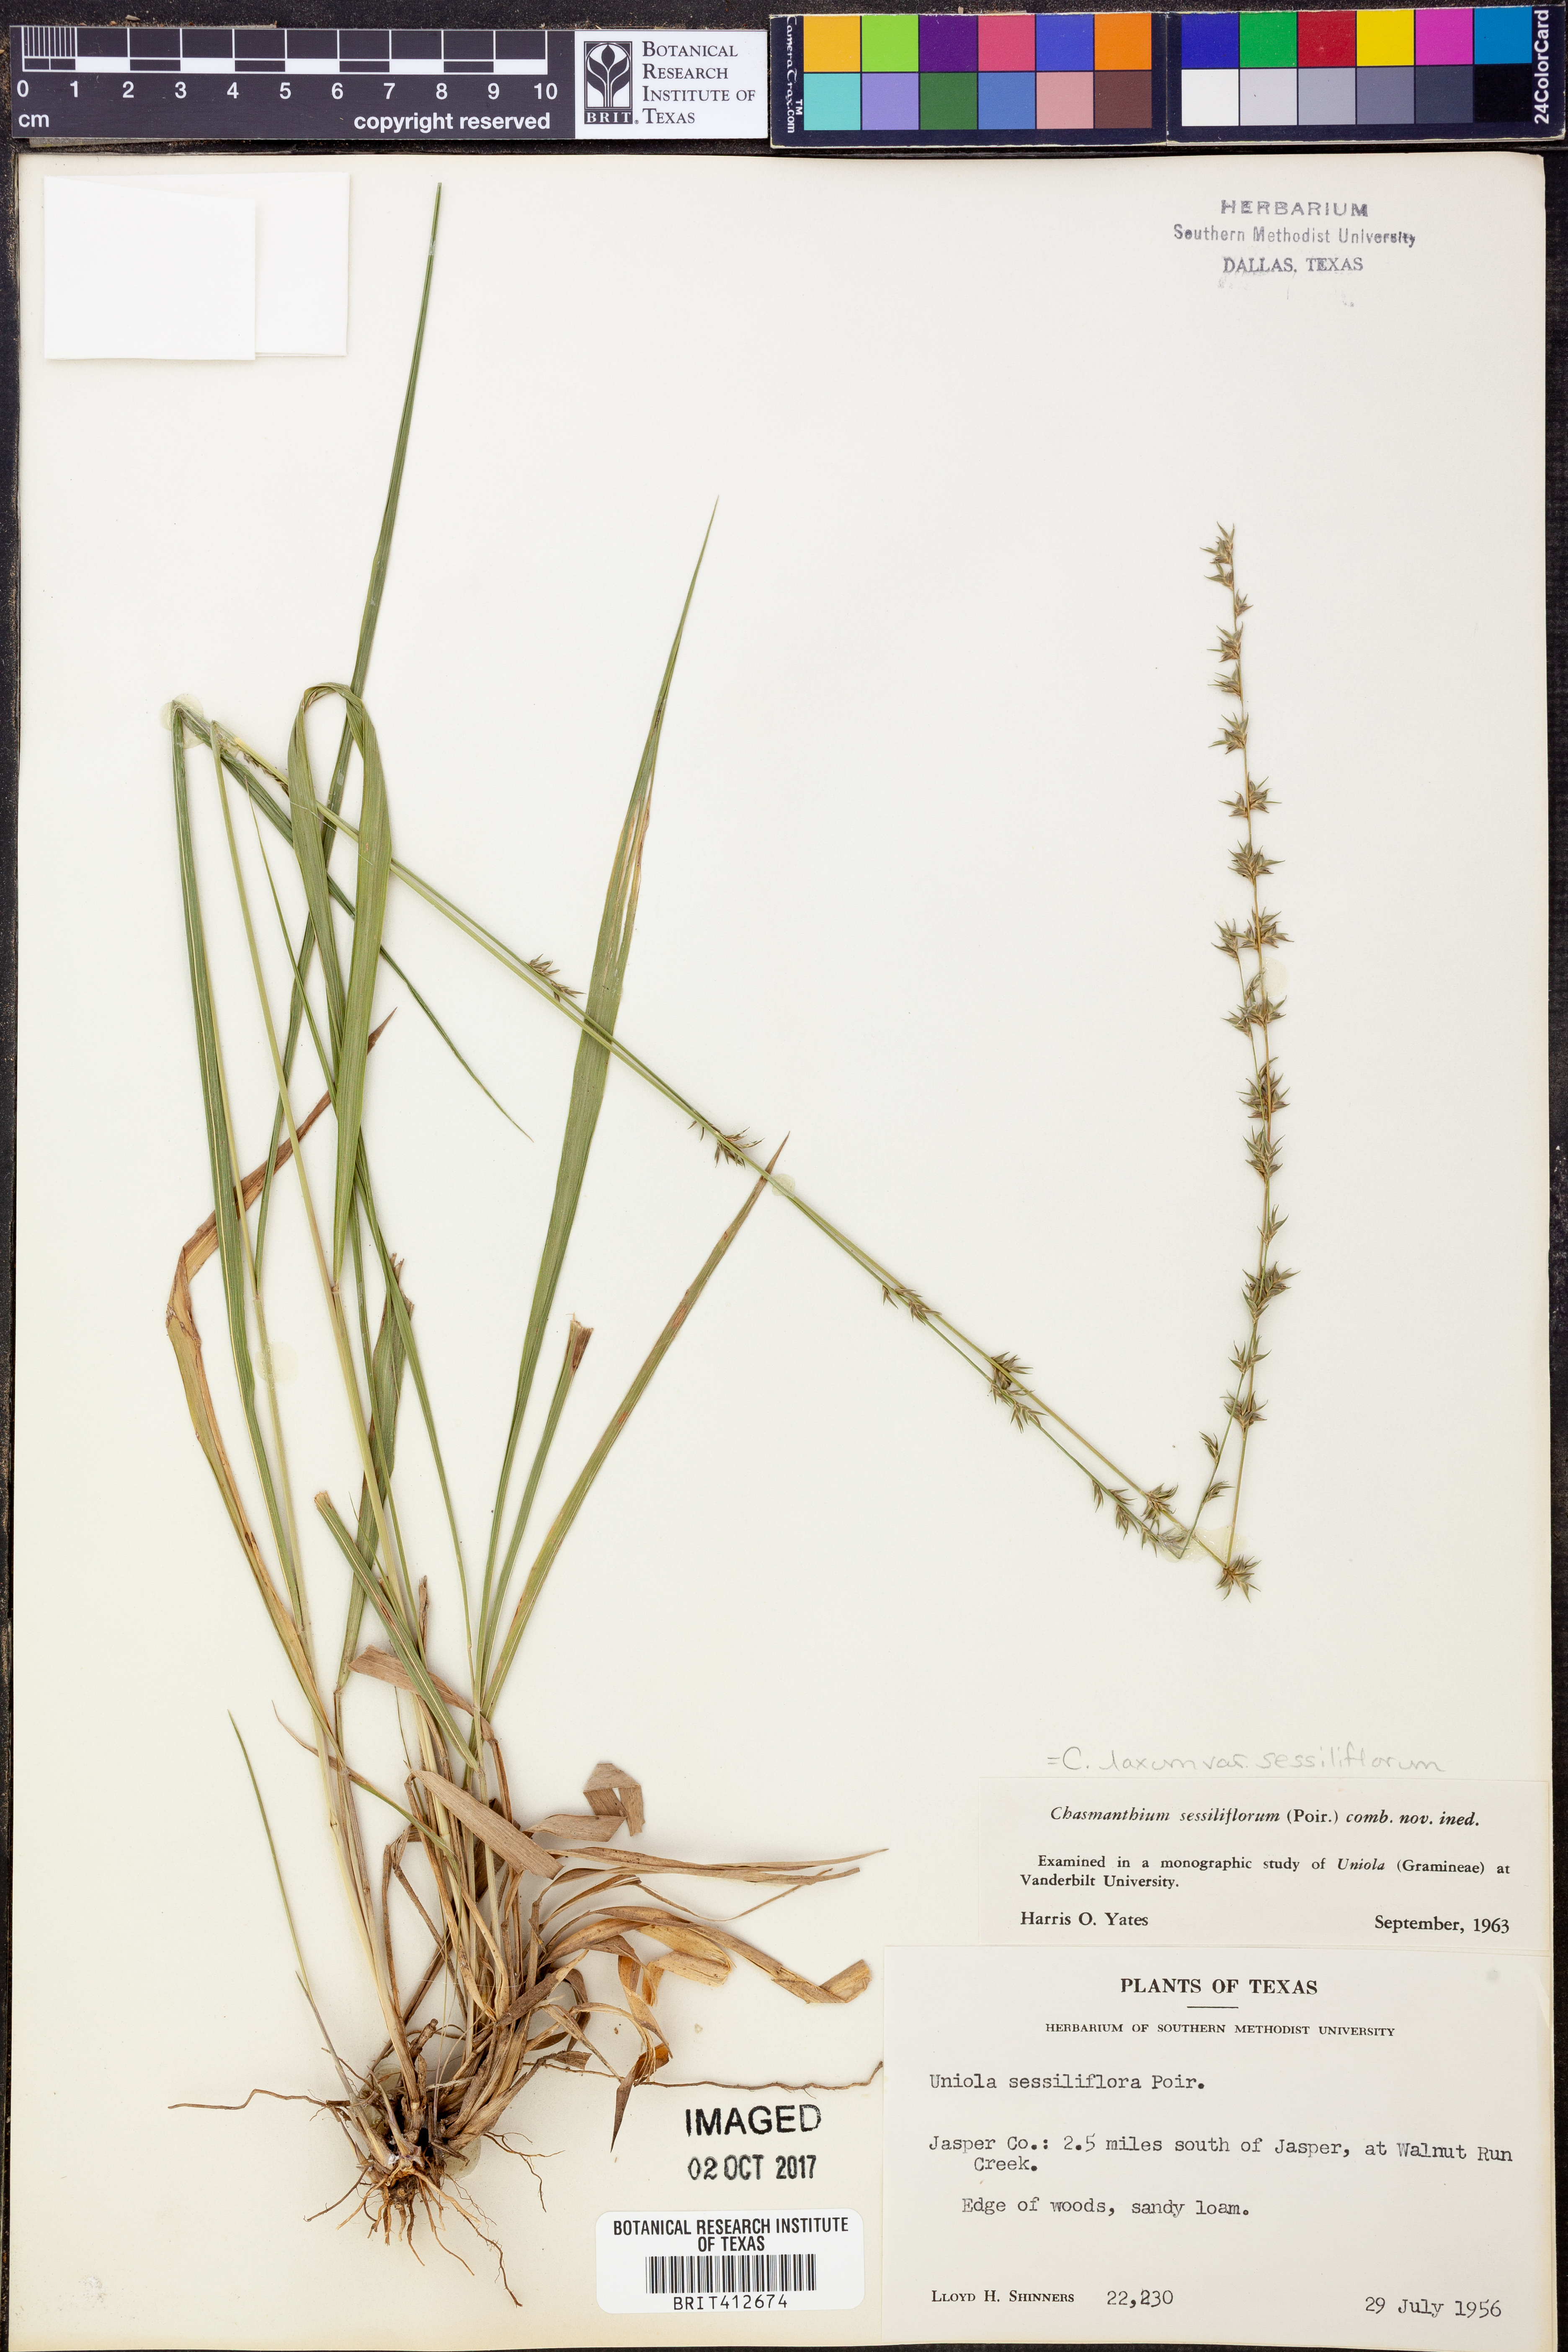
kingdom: Plantae
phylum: Tracheophyta
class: Liliopsida
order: Poales
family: Poaceae
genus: Chasmanthium
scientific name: Chasmanthium laxum
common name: Slender chasmanthium
